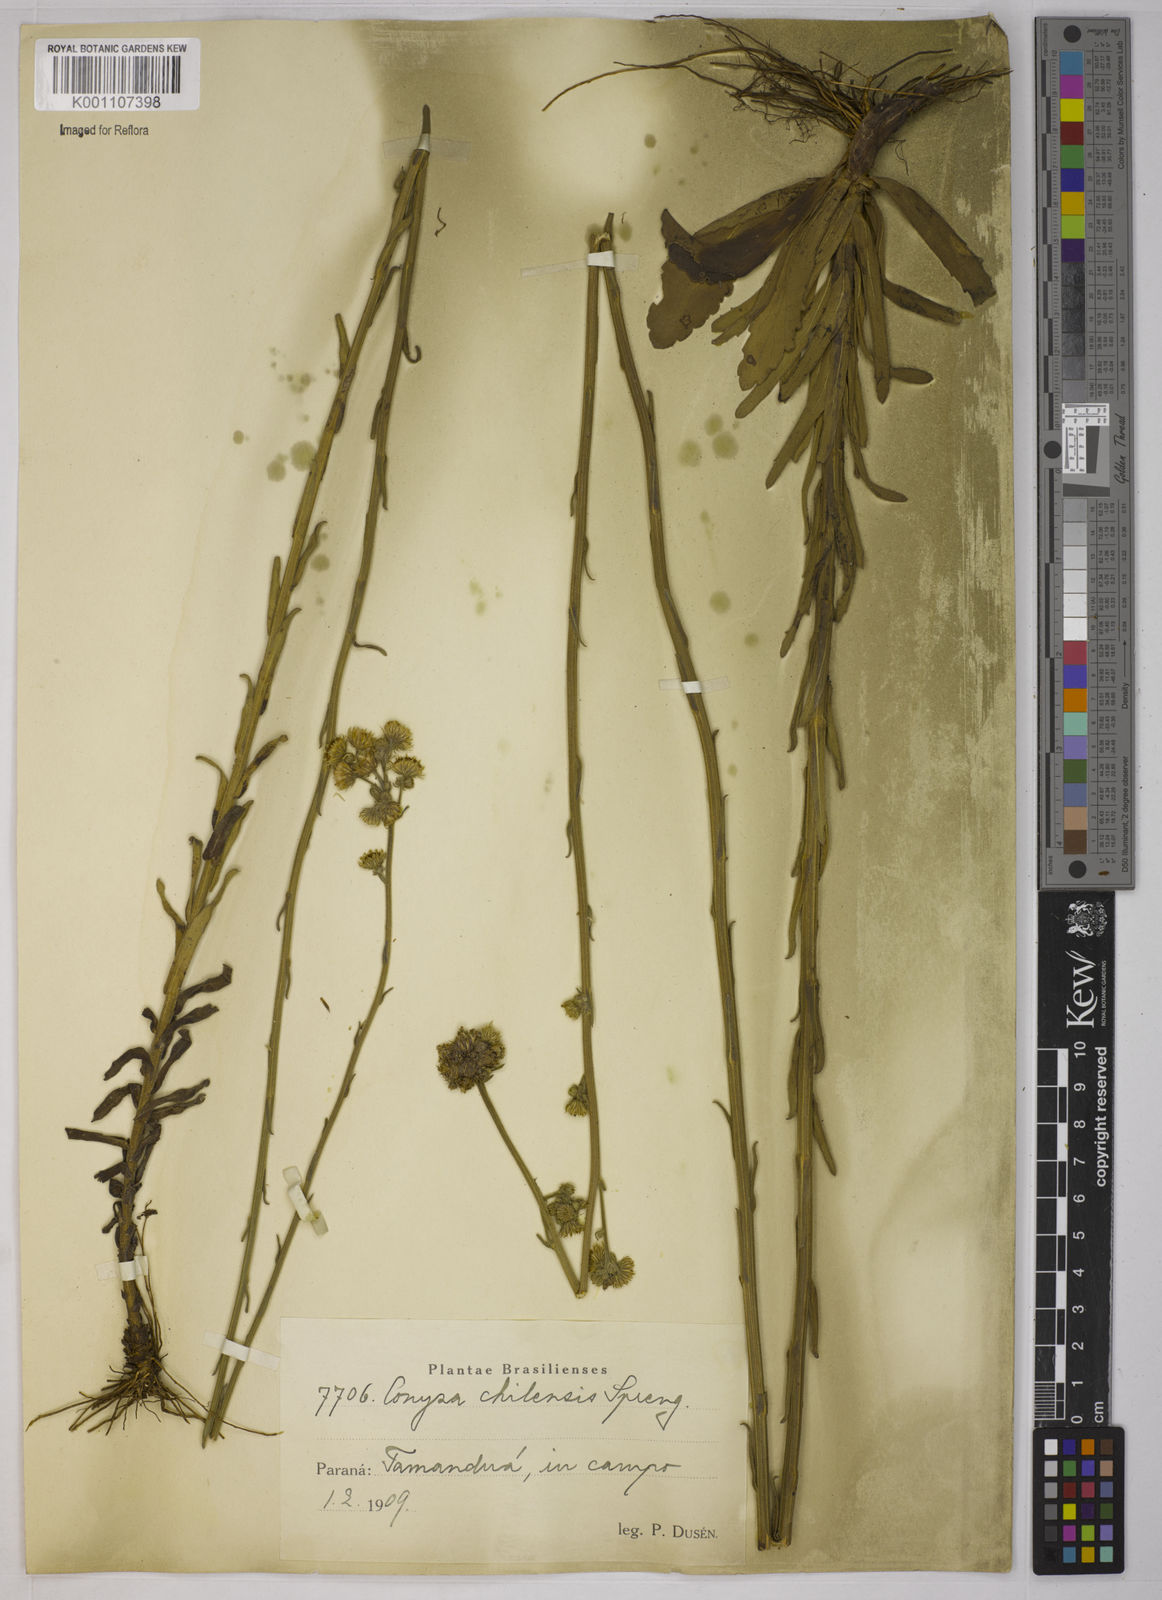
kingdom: Plantae
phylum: Tracheophyta
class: Magnoliopsida
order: Asterales
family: Asteraceae
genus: Conyza
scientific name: Conyza
